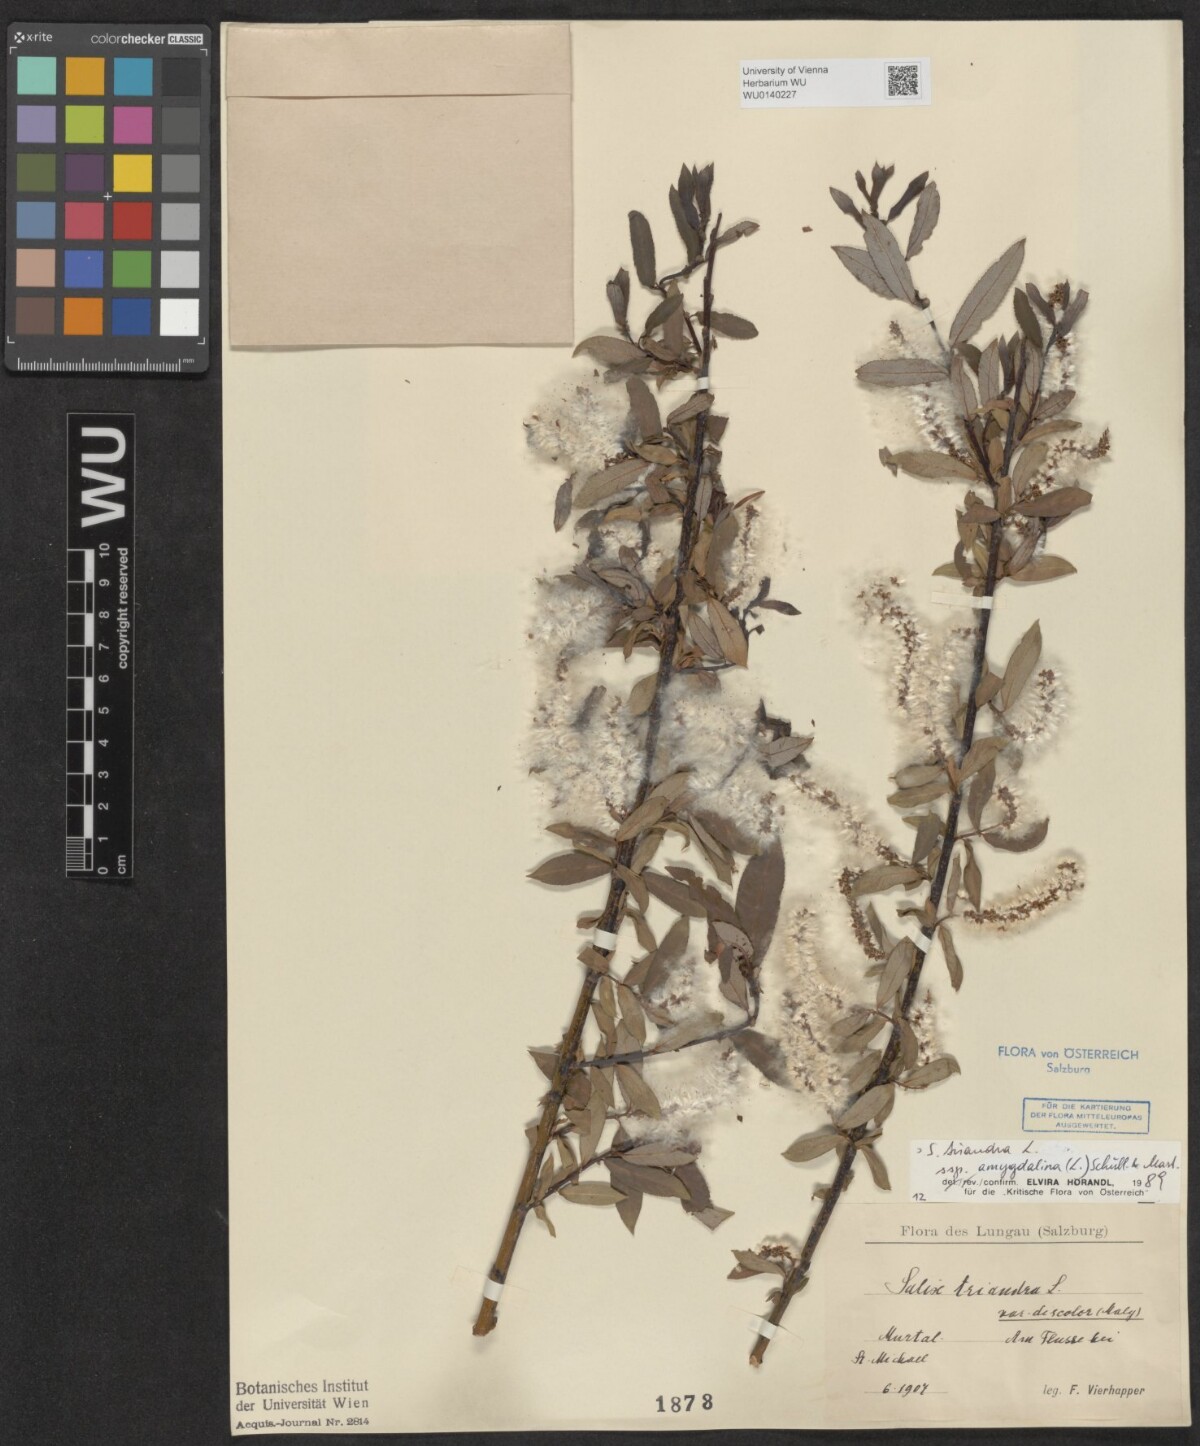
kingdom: Plantae
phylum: Tracheophyta
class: Magnoliopsida
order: Malpighiales
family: Salicaceae
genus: Salix
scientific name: Salix triandra
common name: Almond willow
